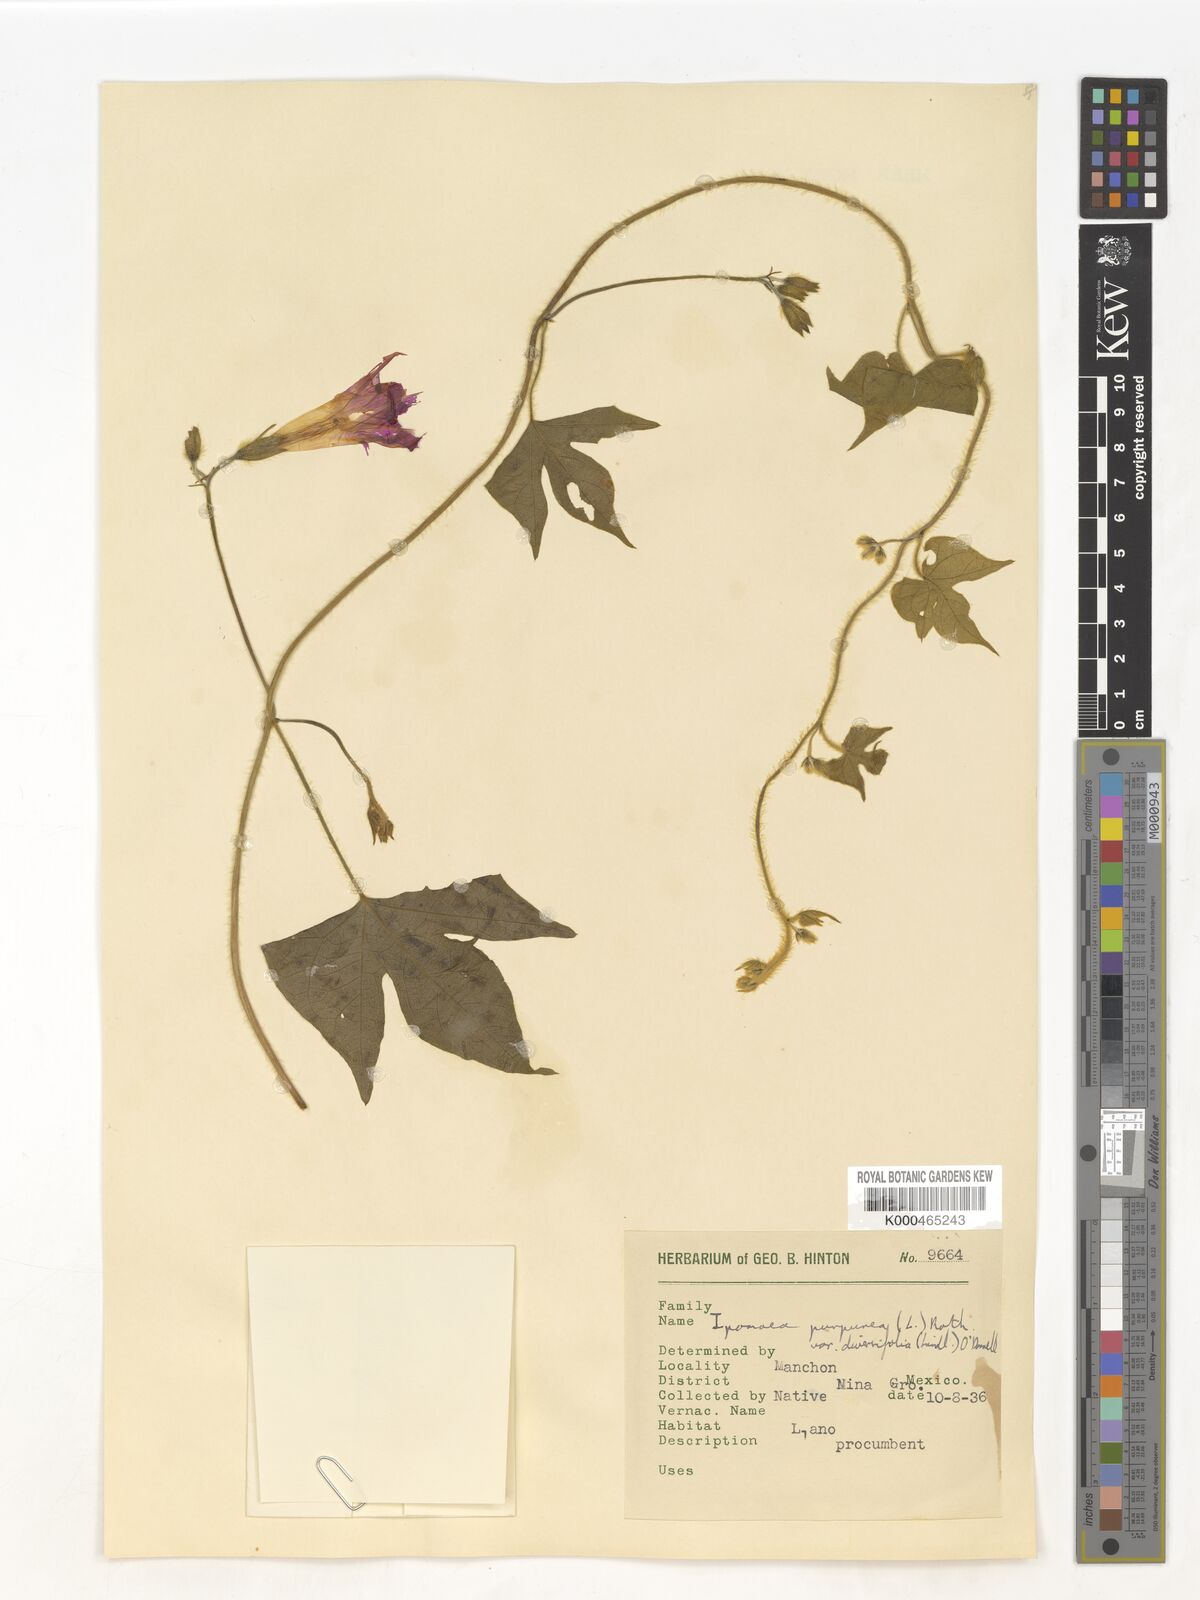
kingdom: Plantae
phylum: Tracheophyta
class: Magnoliopsida
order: Solanales
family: Convolvulaceae
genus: Ipomoea
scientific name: Ipomoea purpurea
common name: Common morning-glory
